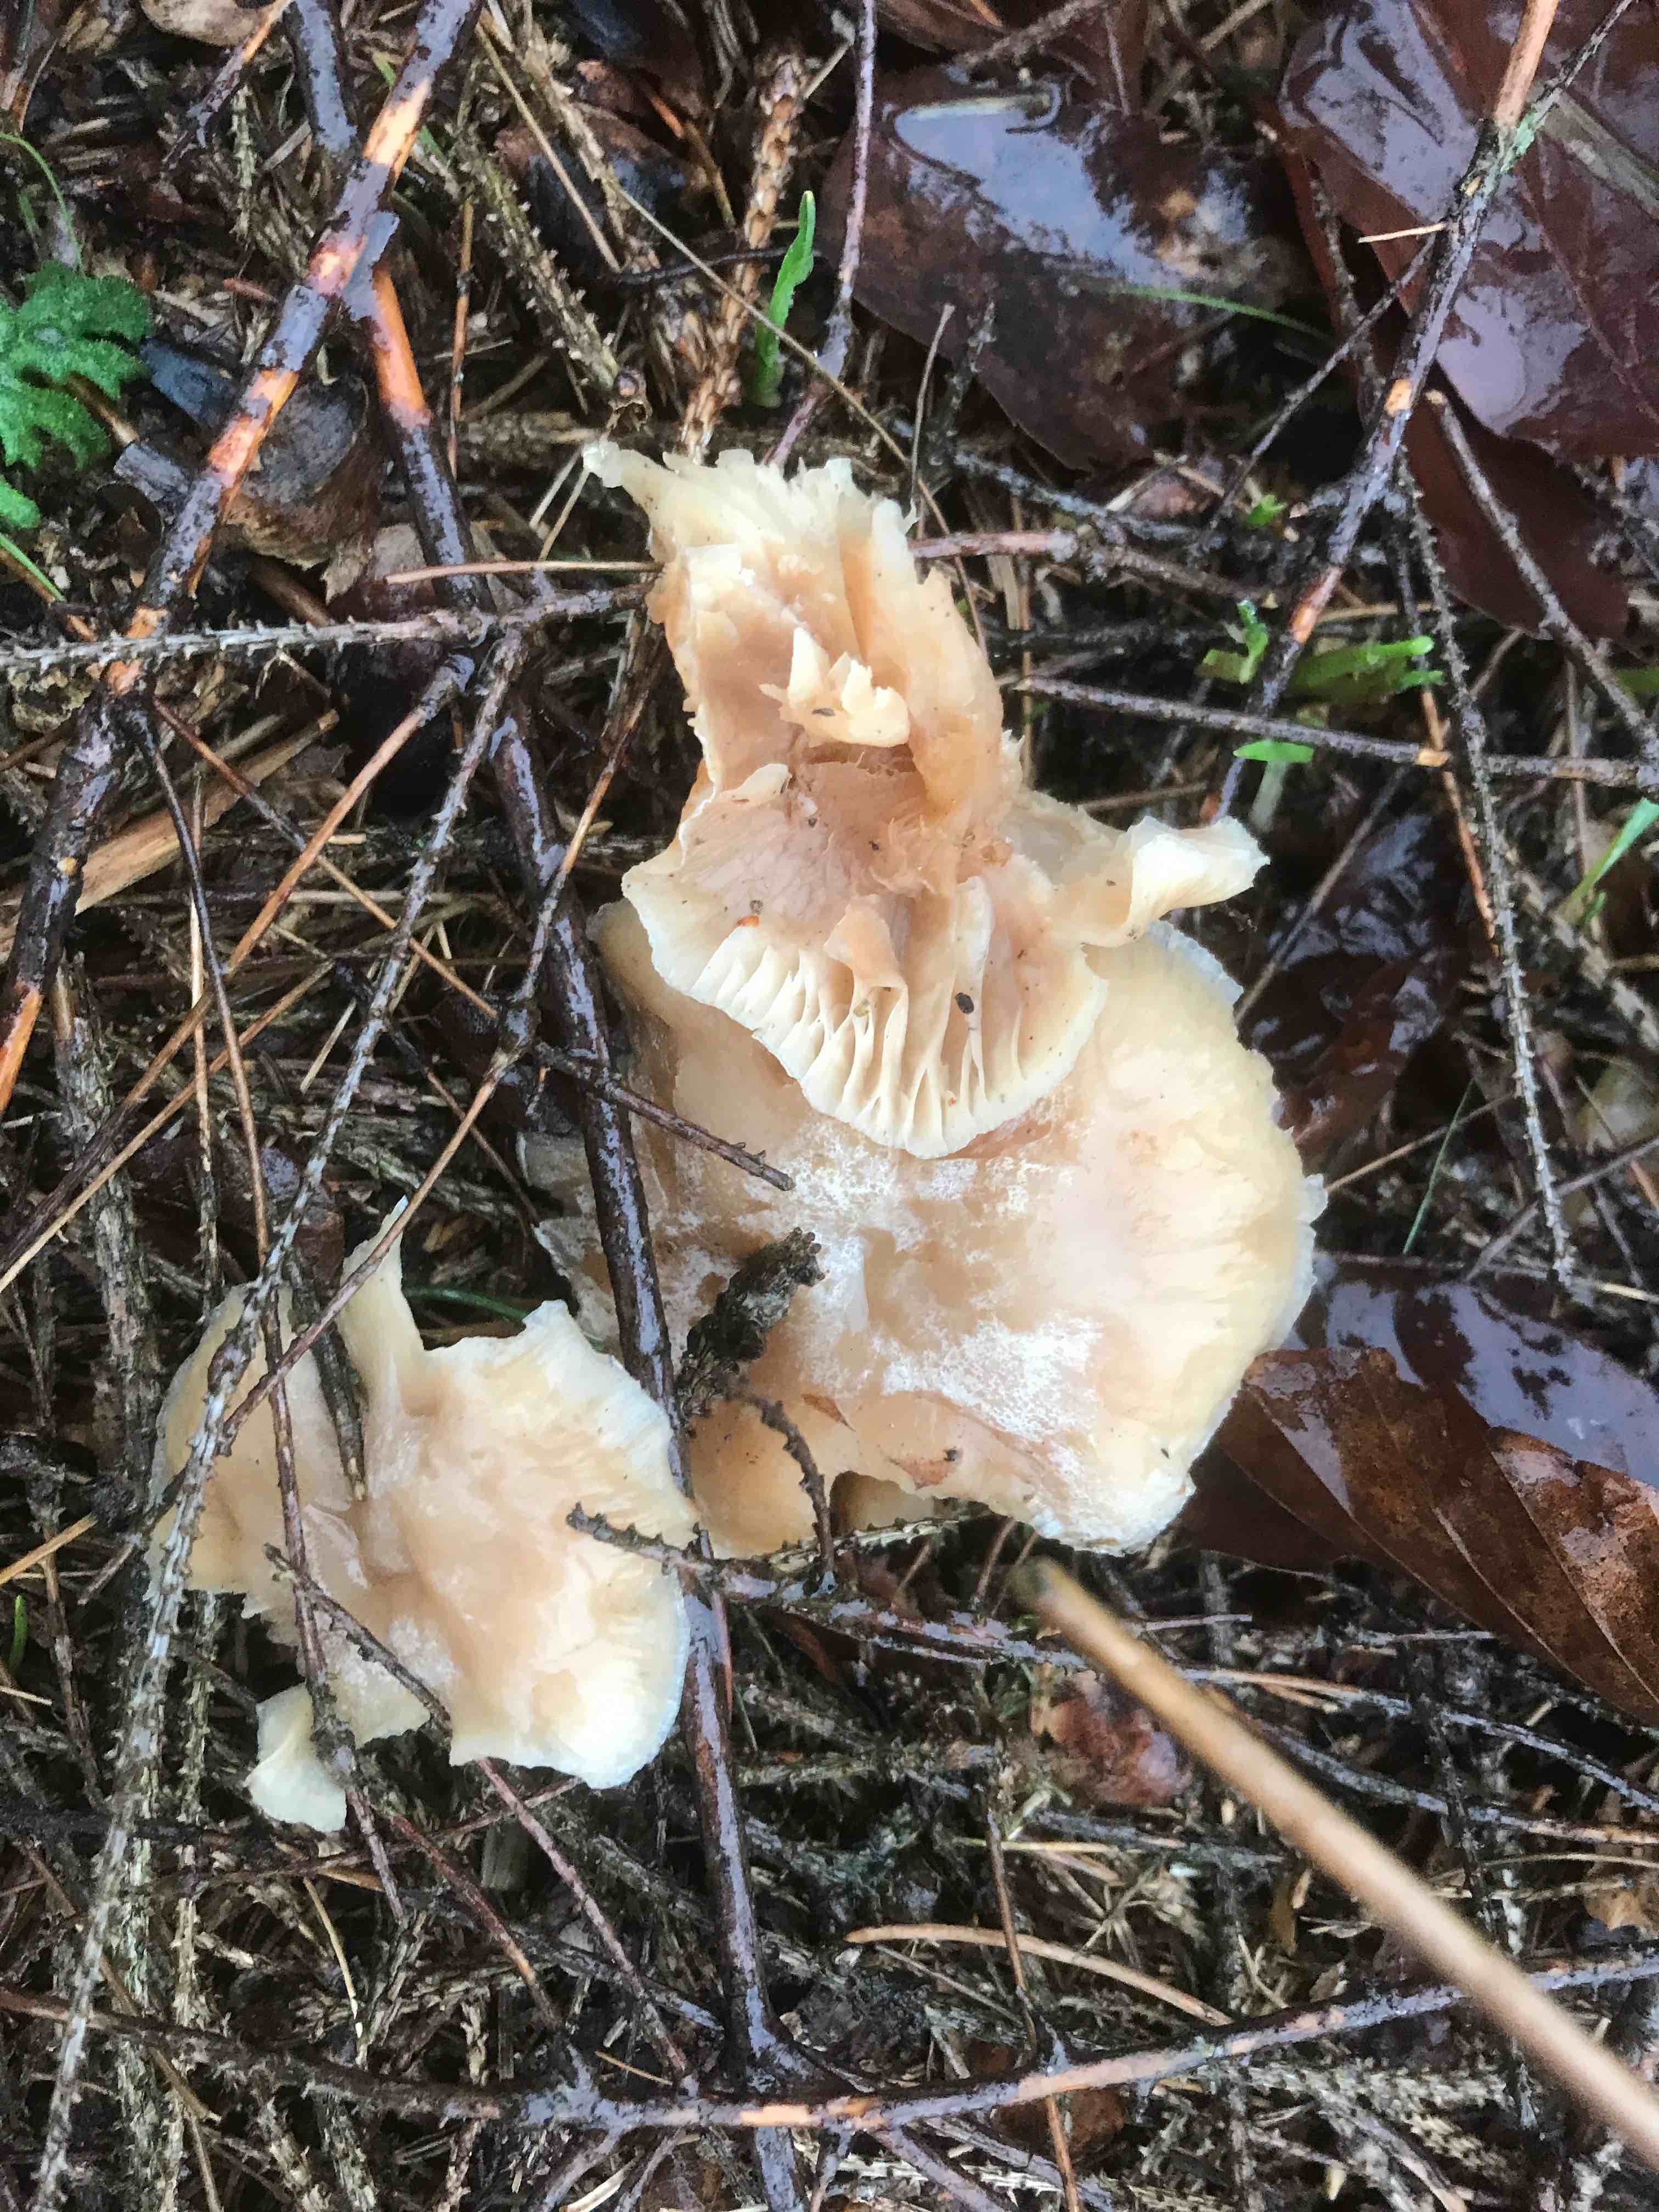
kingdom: Fungi
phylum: Basidiomycota
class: Agaricomycetes
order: Agaricales
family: Tricholomataceae
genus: Clitocybe
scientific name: Clitocybe fragrans
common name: vellugtende tragthat
